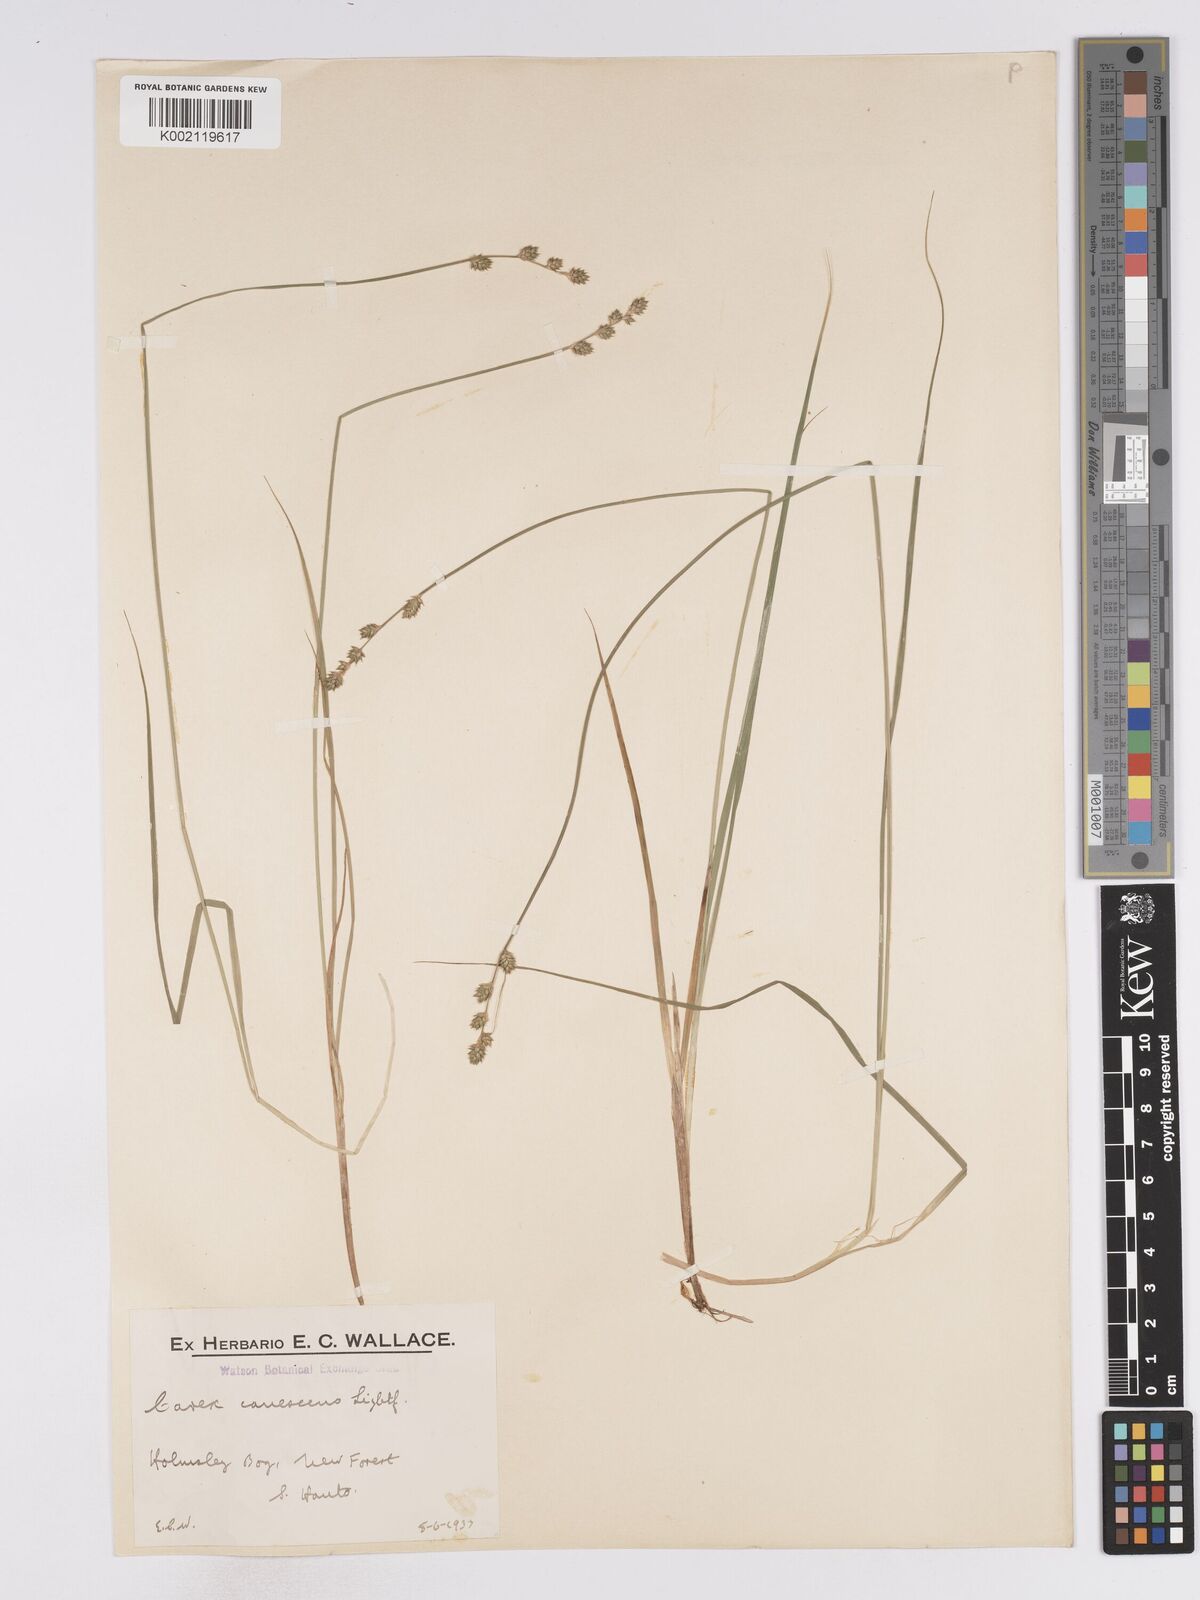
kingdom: Plantae
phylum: Tracheophyta
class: Liliopsida
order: Poales
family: Cyperaceae
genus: Carex
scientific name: Carex curta
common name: White sedge
